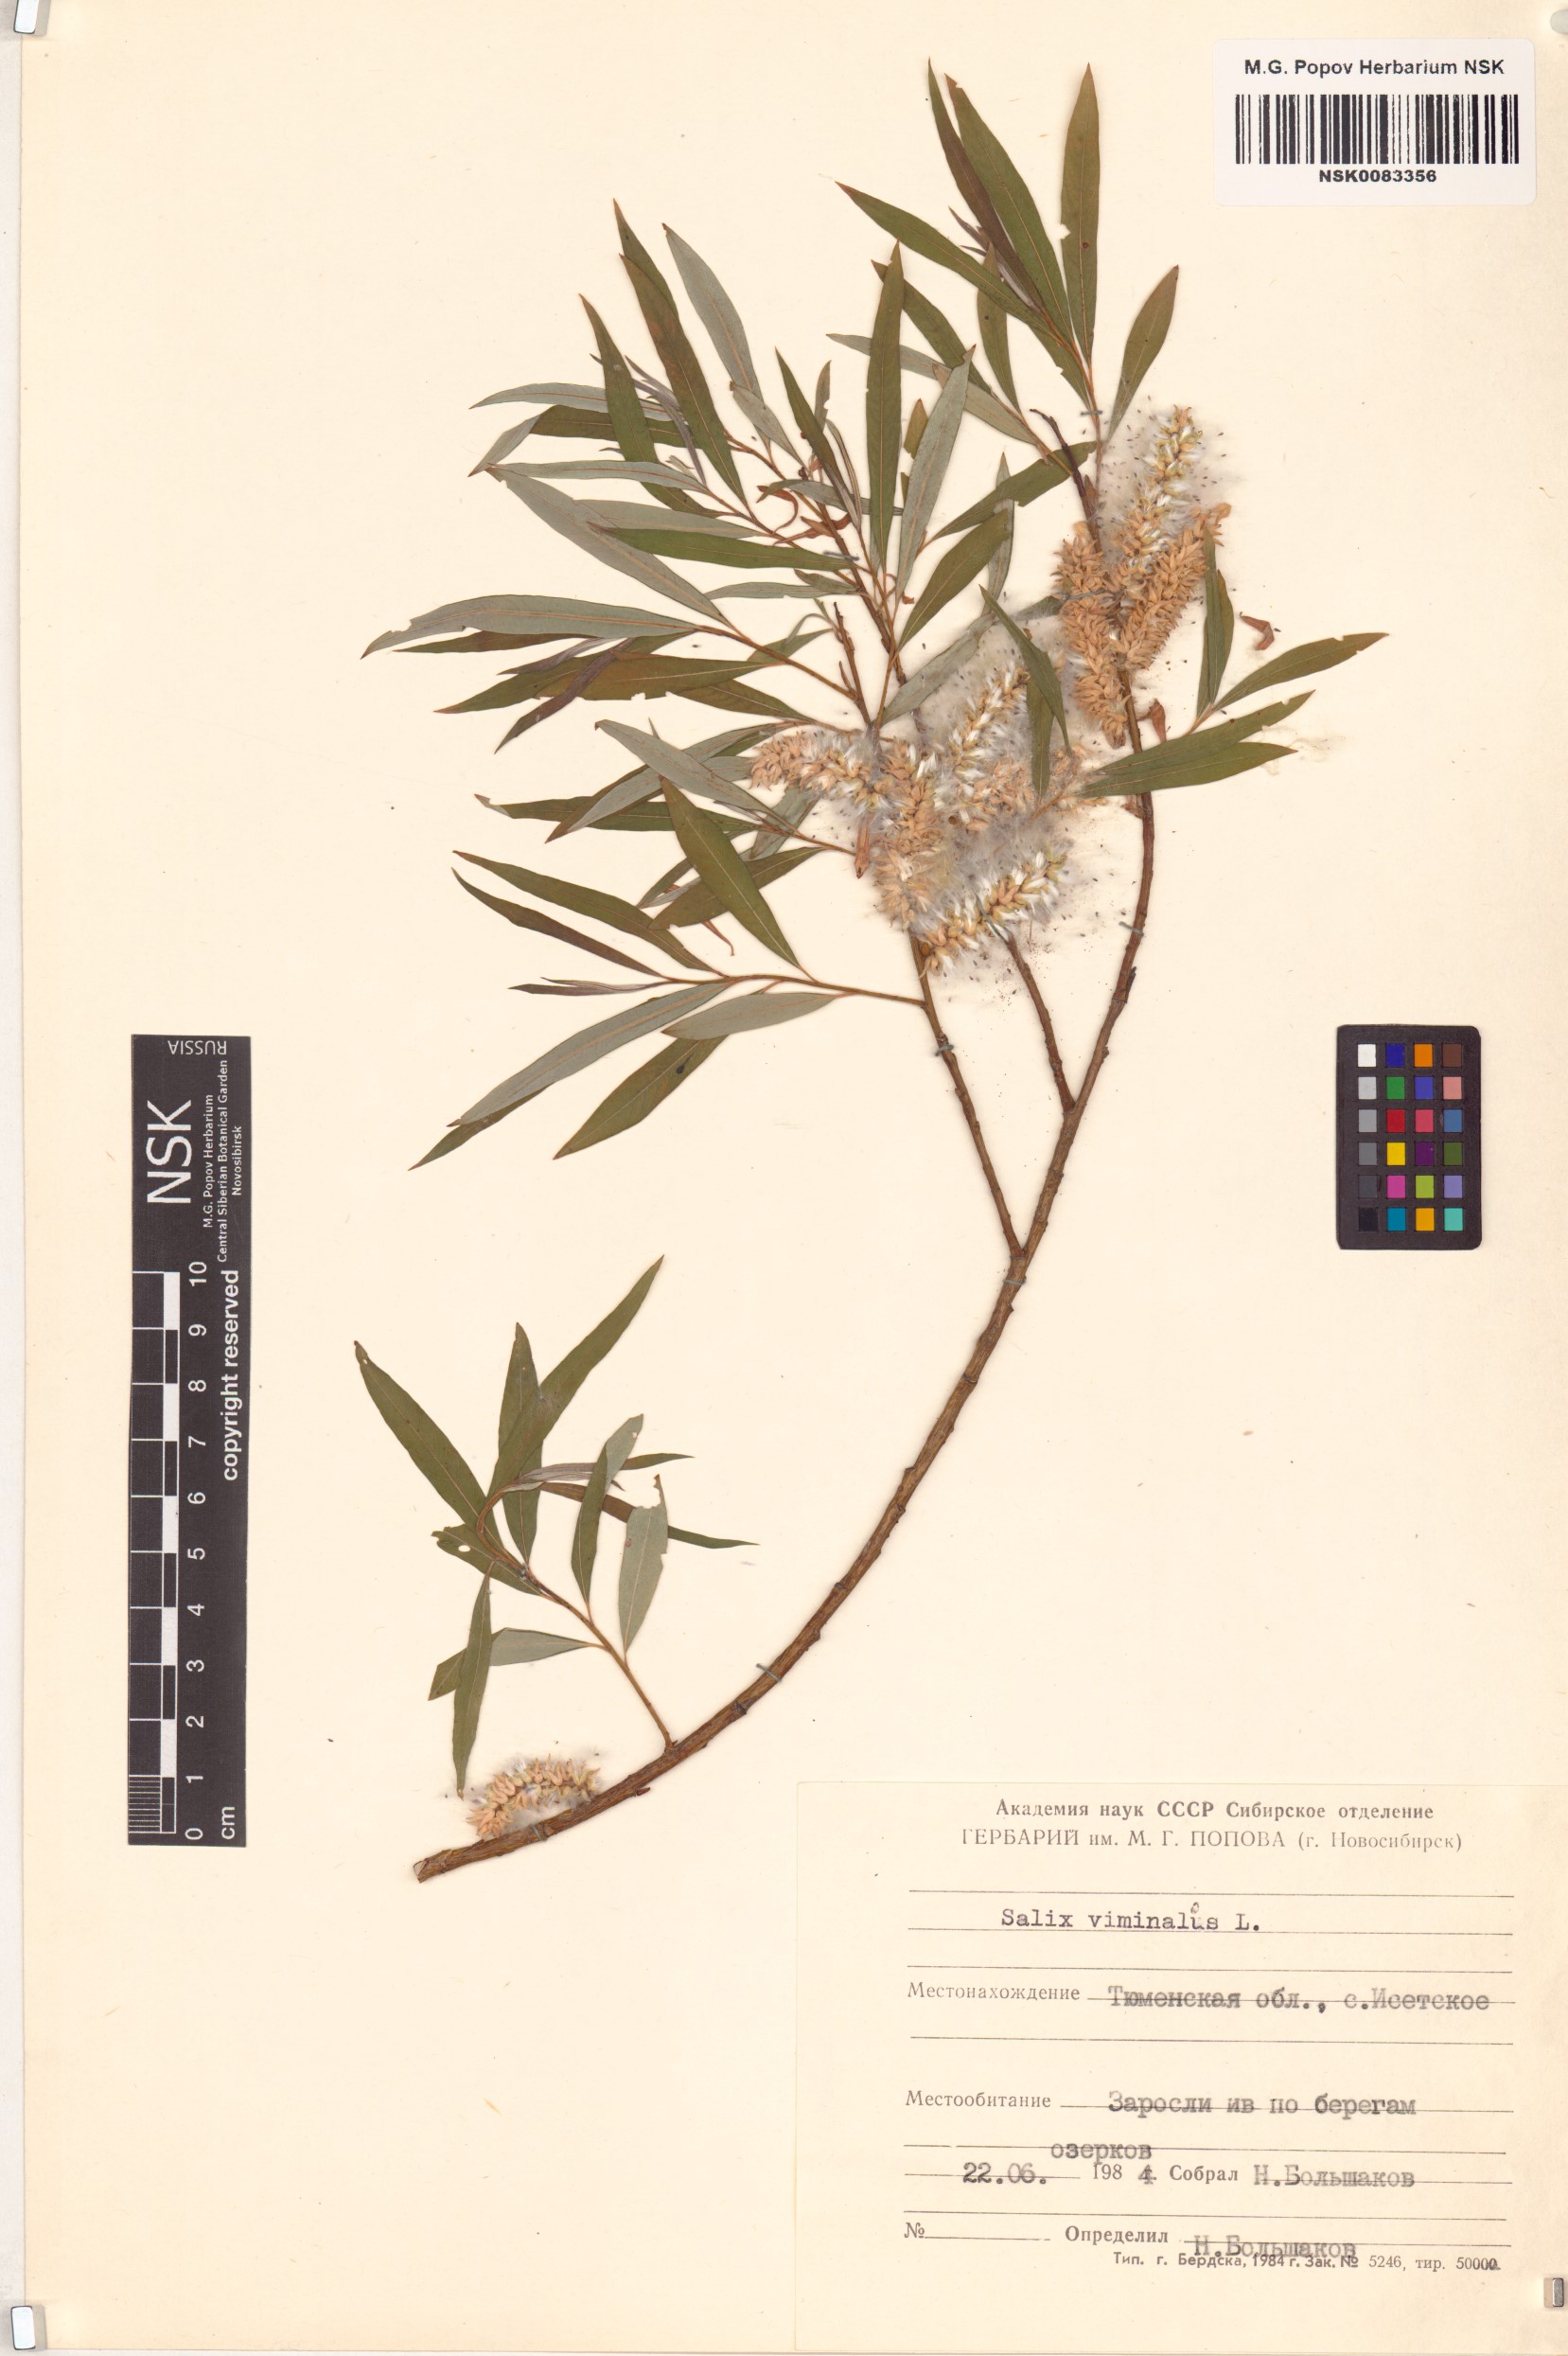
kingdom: Plantae
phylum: Tracheophyta
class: Magnoliopsida
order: Malpighiales
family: Salicaceae
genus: Salix
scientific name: Salix viminalis
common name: Osier
